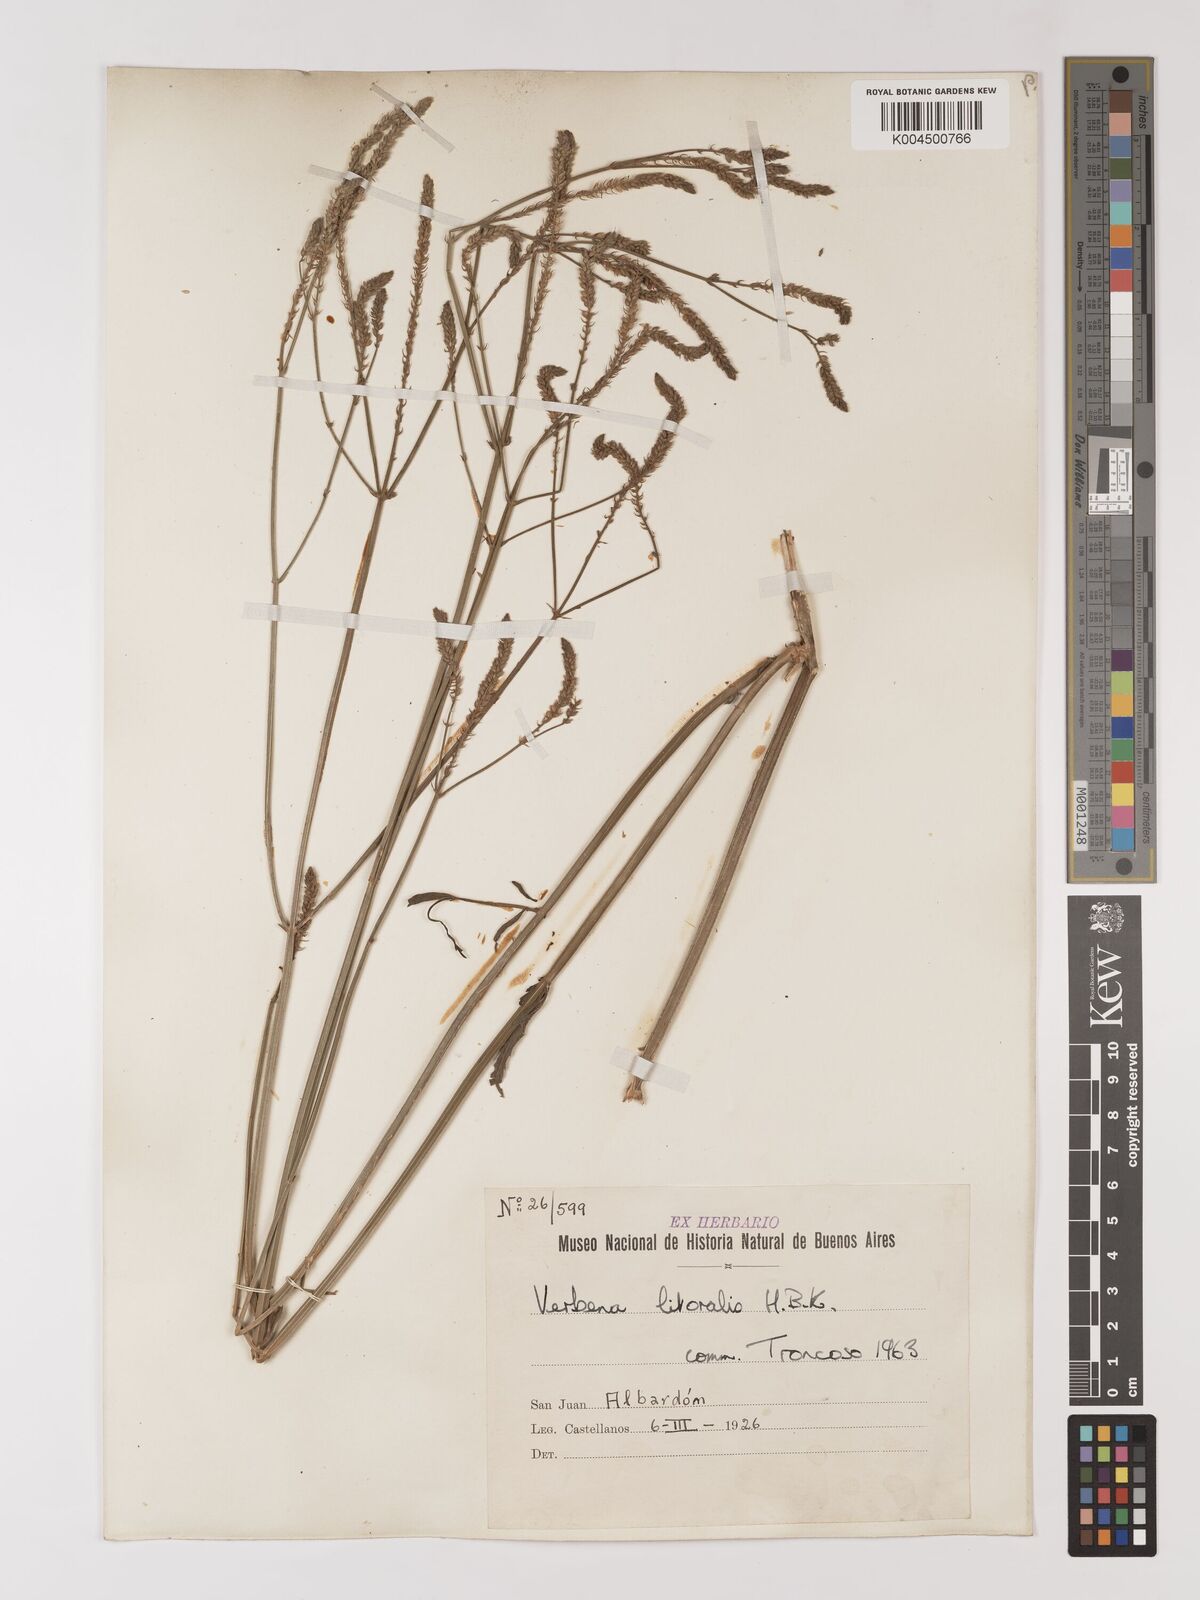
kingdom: Plantae
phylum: Tracheophyta
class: Magnoliopsida
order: Lamiales
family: Verbenaceae
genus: Verbena
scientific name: Verbena litoralis
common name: Seashore vervain
